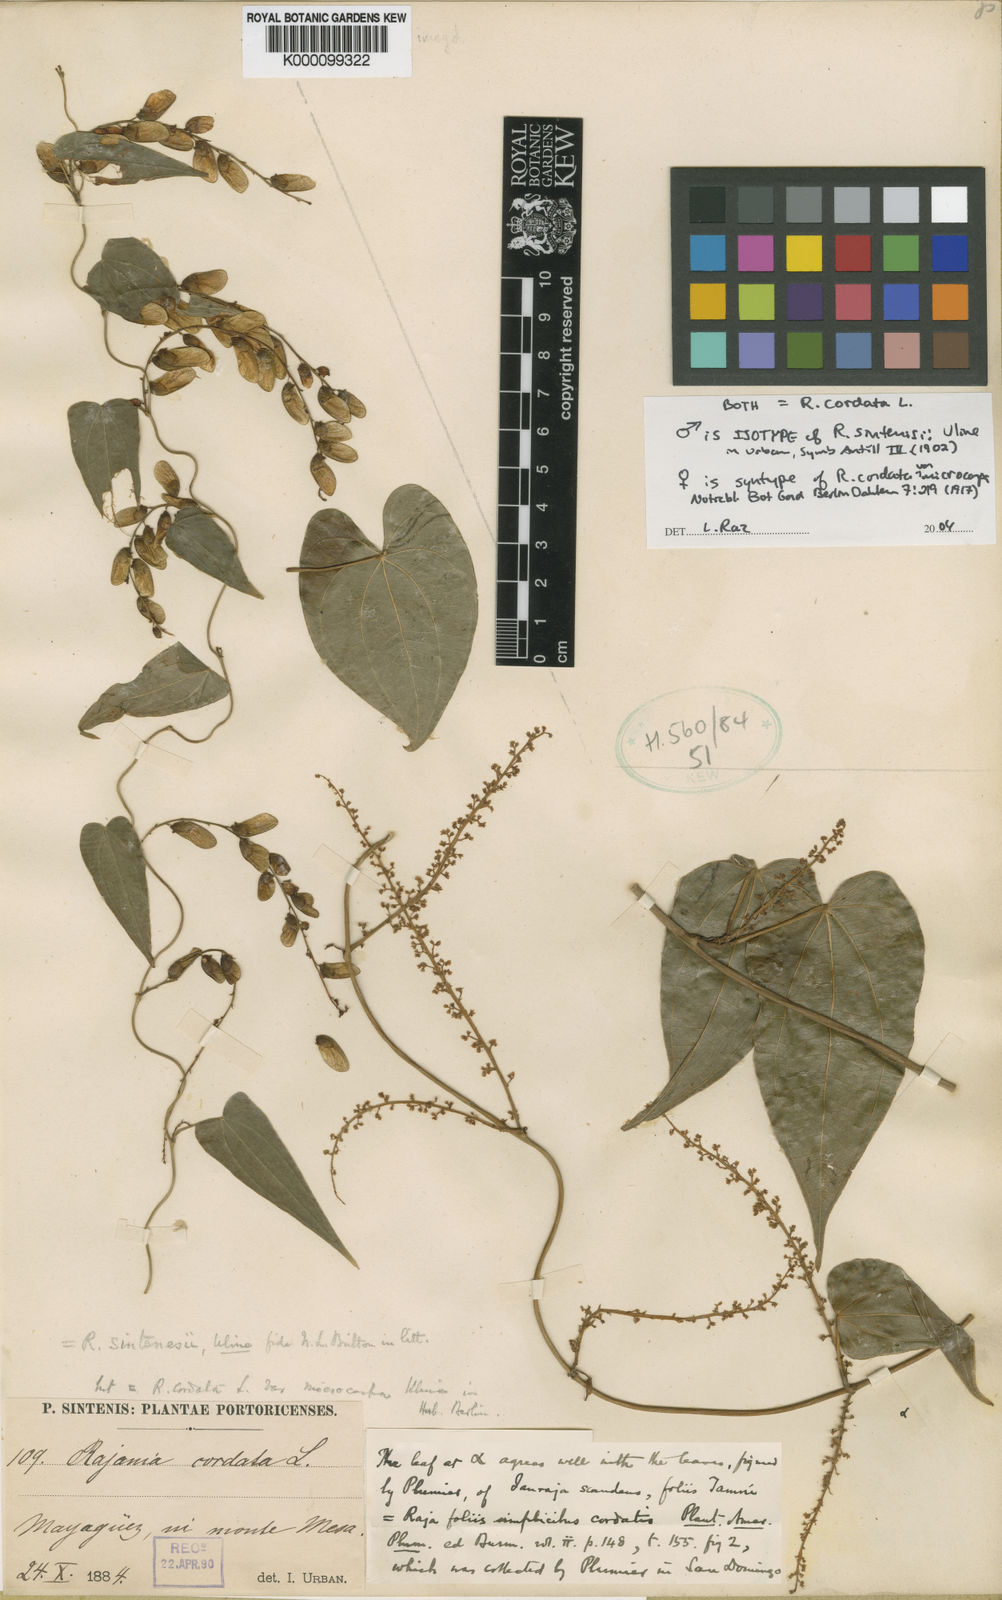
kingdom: Plantae
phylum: Tracheophyta
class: Liliopsida
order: Dioscoreales
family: Dioscoreaceae
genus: Dioscorea
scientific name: Dioscorea
